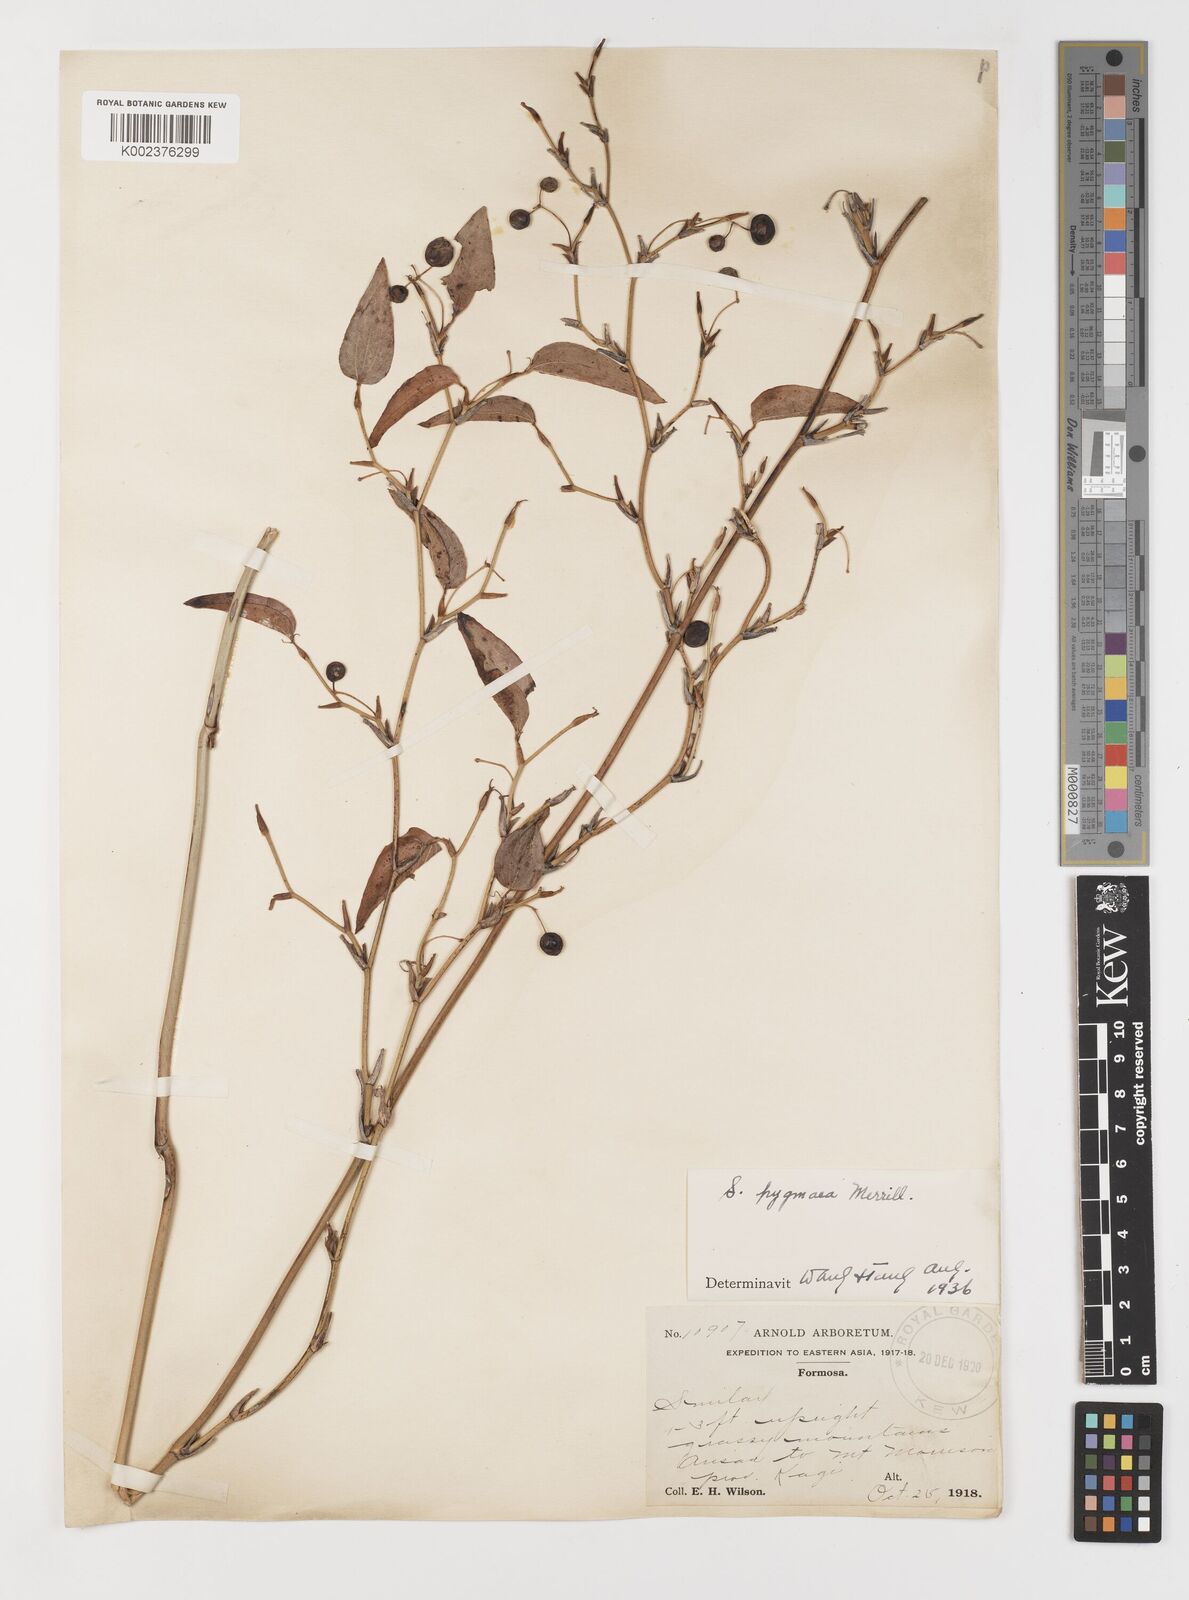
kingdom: Plantae
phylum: Tracheophyta
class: Liliopsida
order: Liliales
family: Smilacaceae
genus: Smilax
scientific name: Smilax pygmaea
